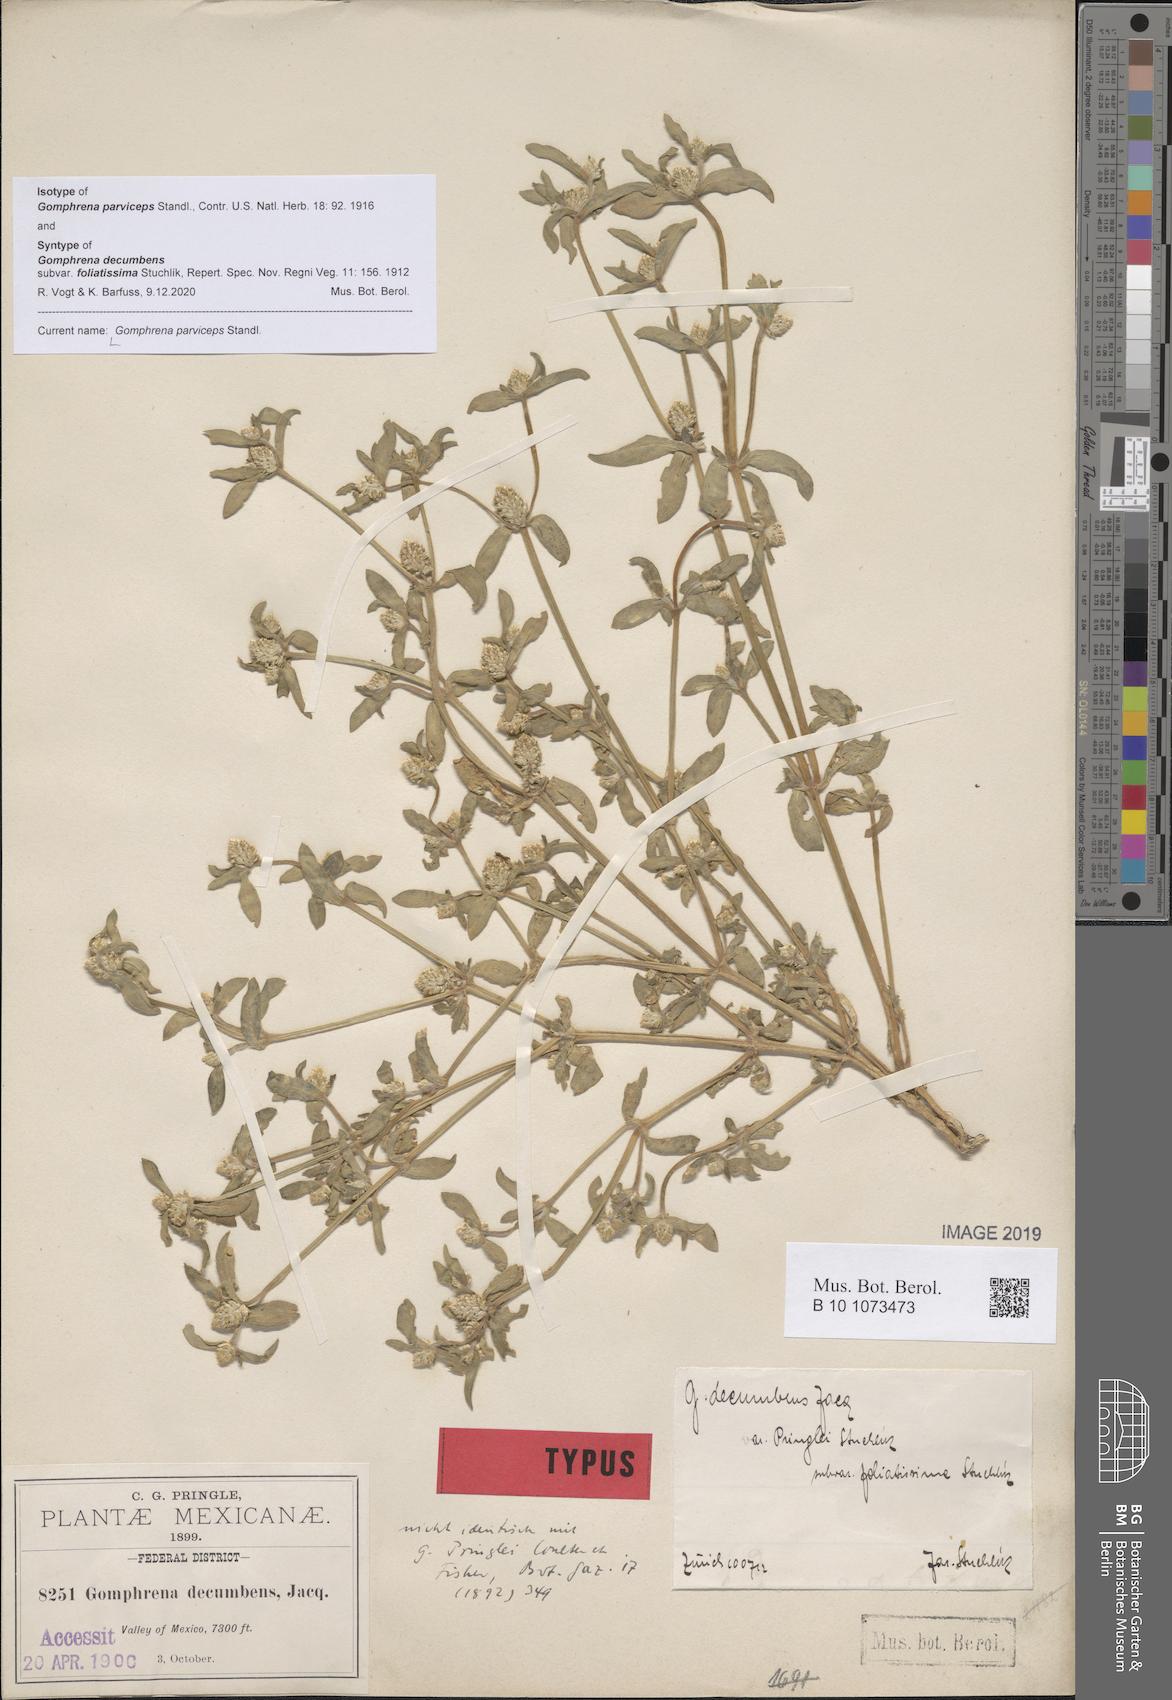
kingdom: Plantae
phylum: Tracheophyta
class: Magnoliopsida
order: Caryophyllales
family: Amaranthaceae
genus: Gomphrena
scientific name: Gomphrena parviceps
